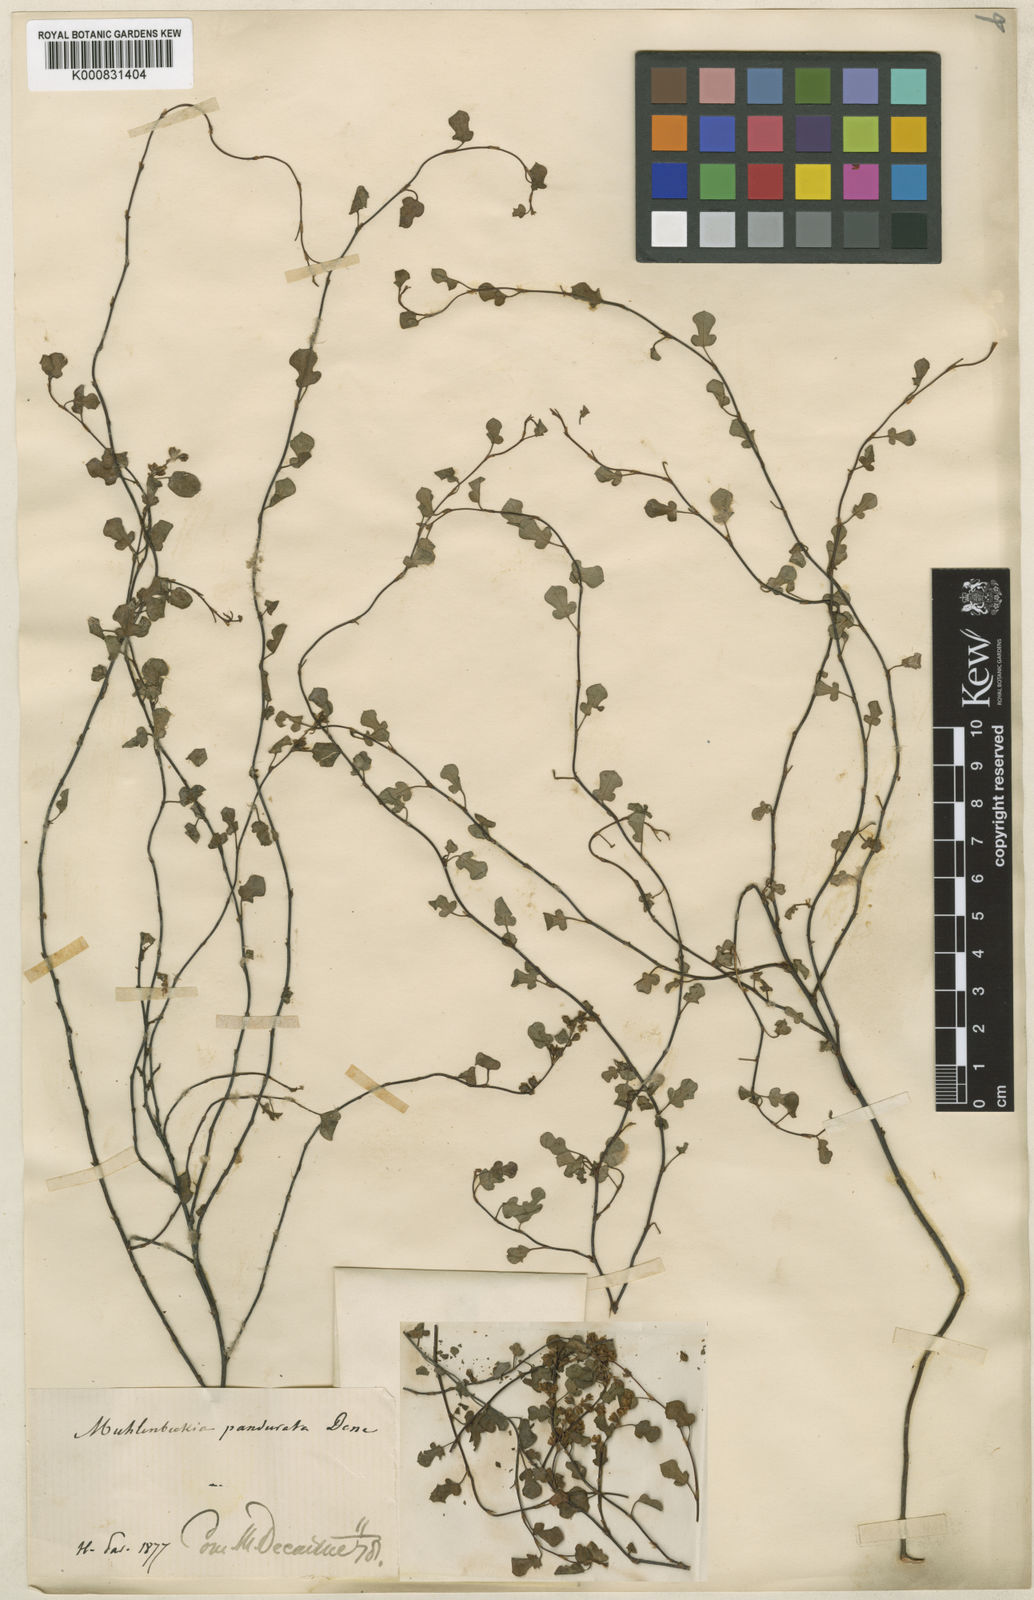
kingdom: Plantae
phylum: Tracheophyta
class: Magnoliopsida
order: Caryophyllales
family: Polygonaceae
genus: Muehlenbeckia
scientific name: Muehlenbeckia complexa
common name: Wireplant
